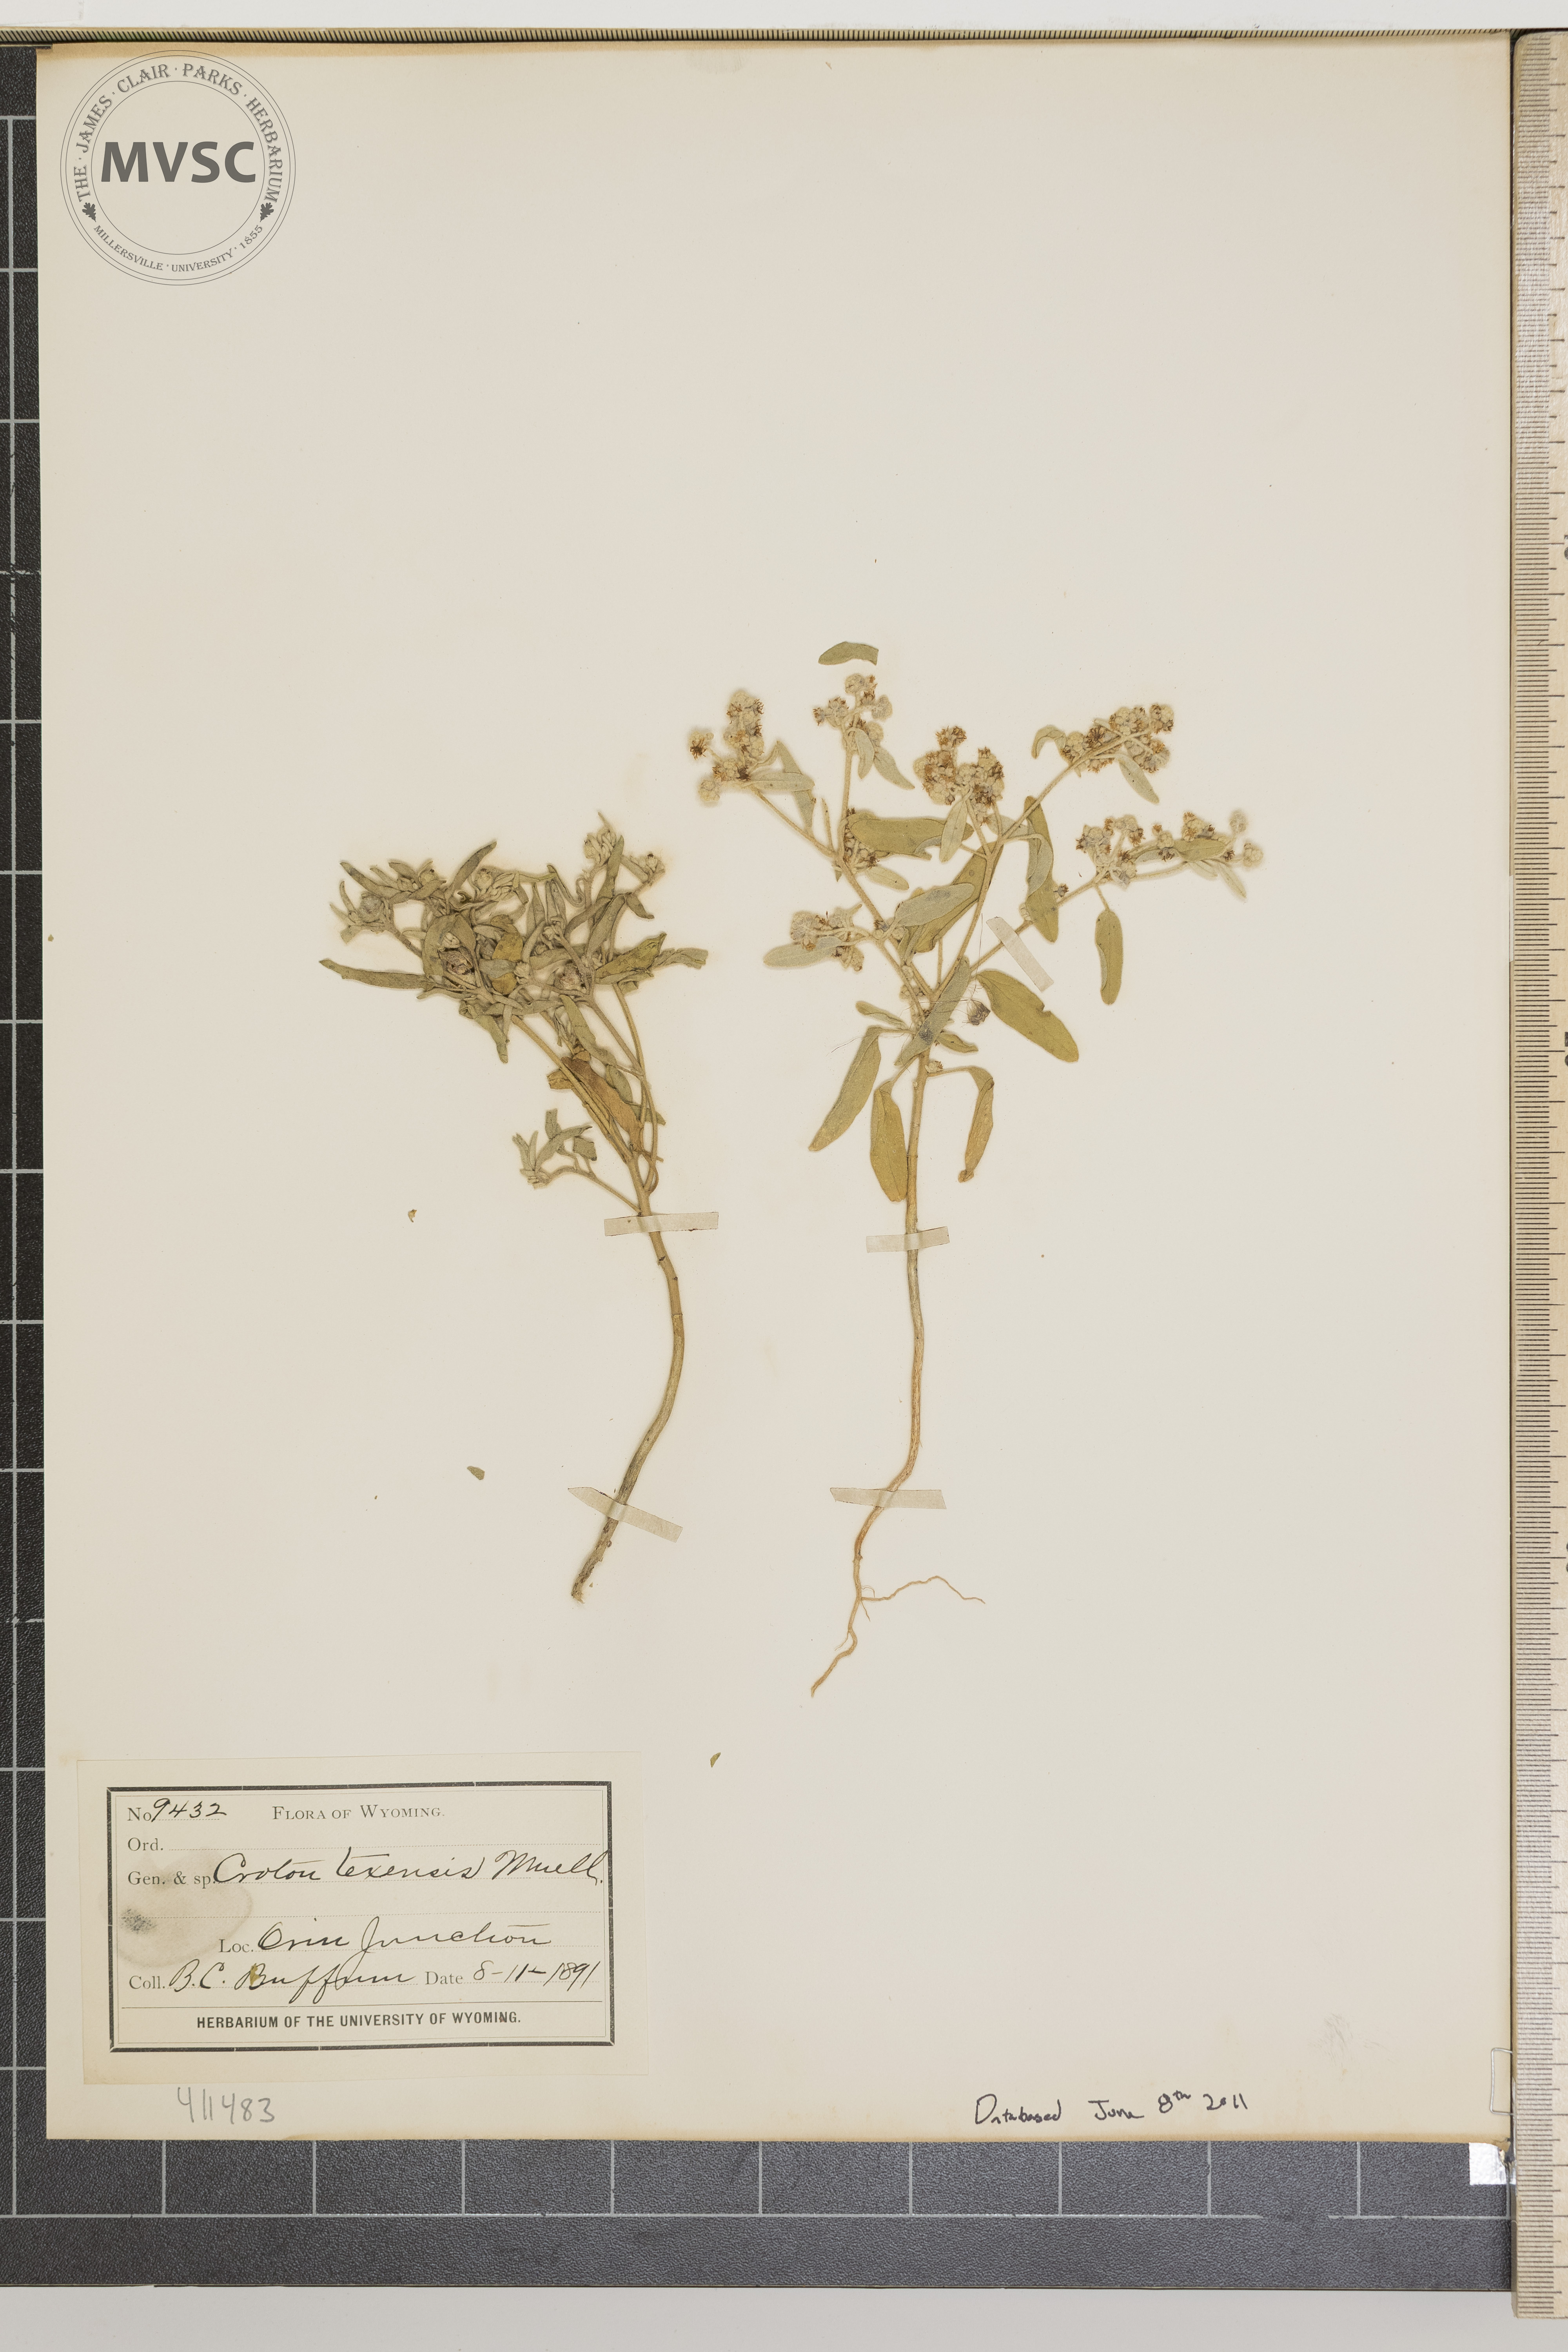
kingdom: Plantae
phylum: Tracheophyta
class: Magnoliopsida
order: Malpighiales
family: Euphorbiaceae
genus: Croton
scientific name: Croton texensis
